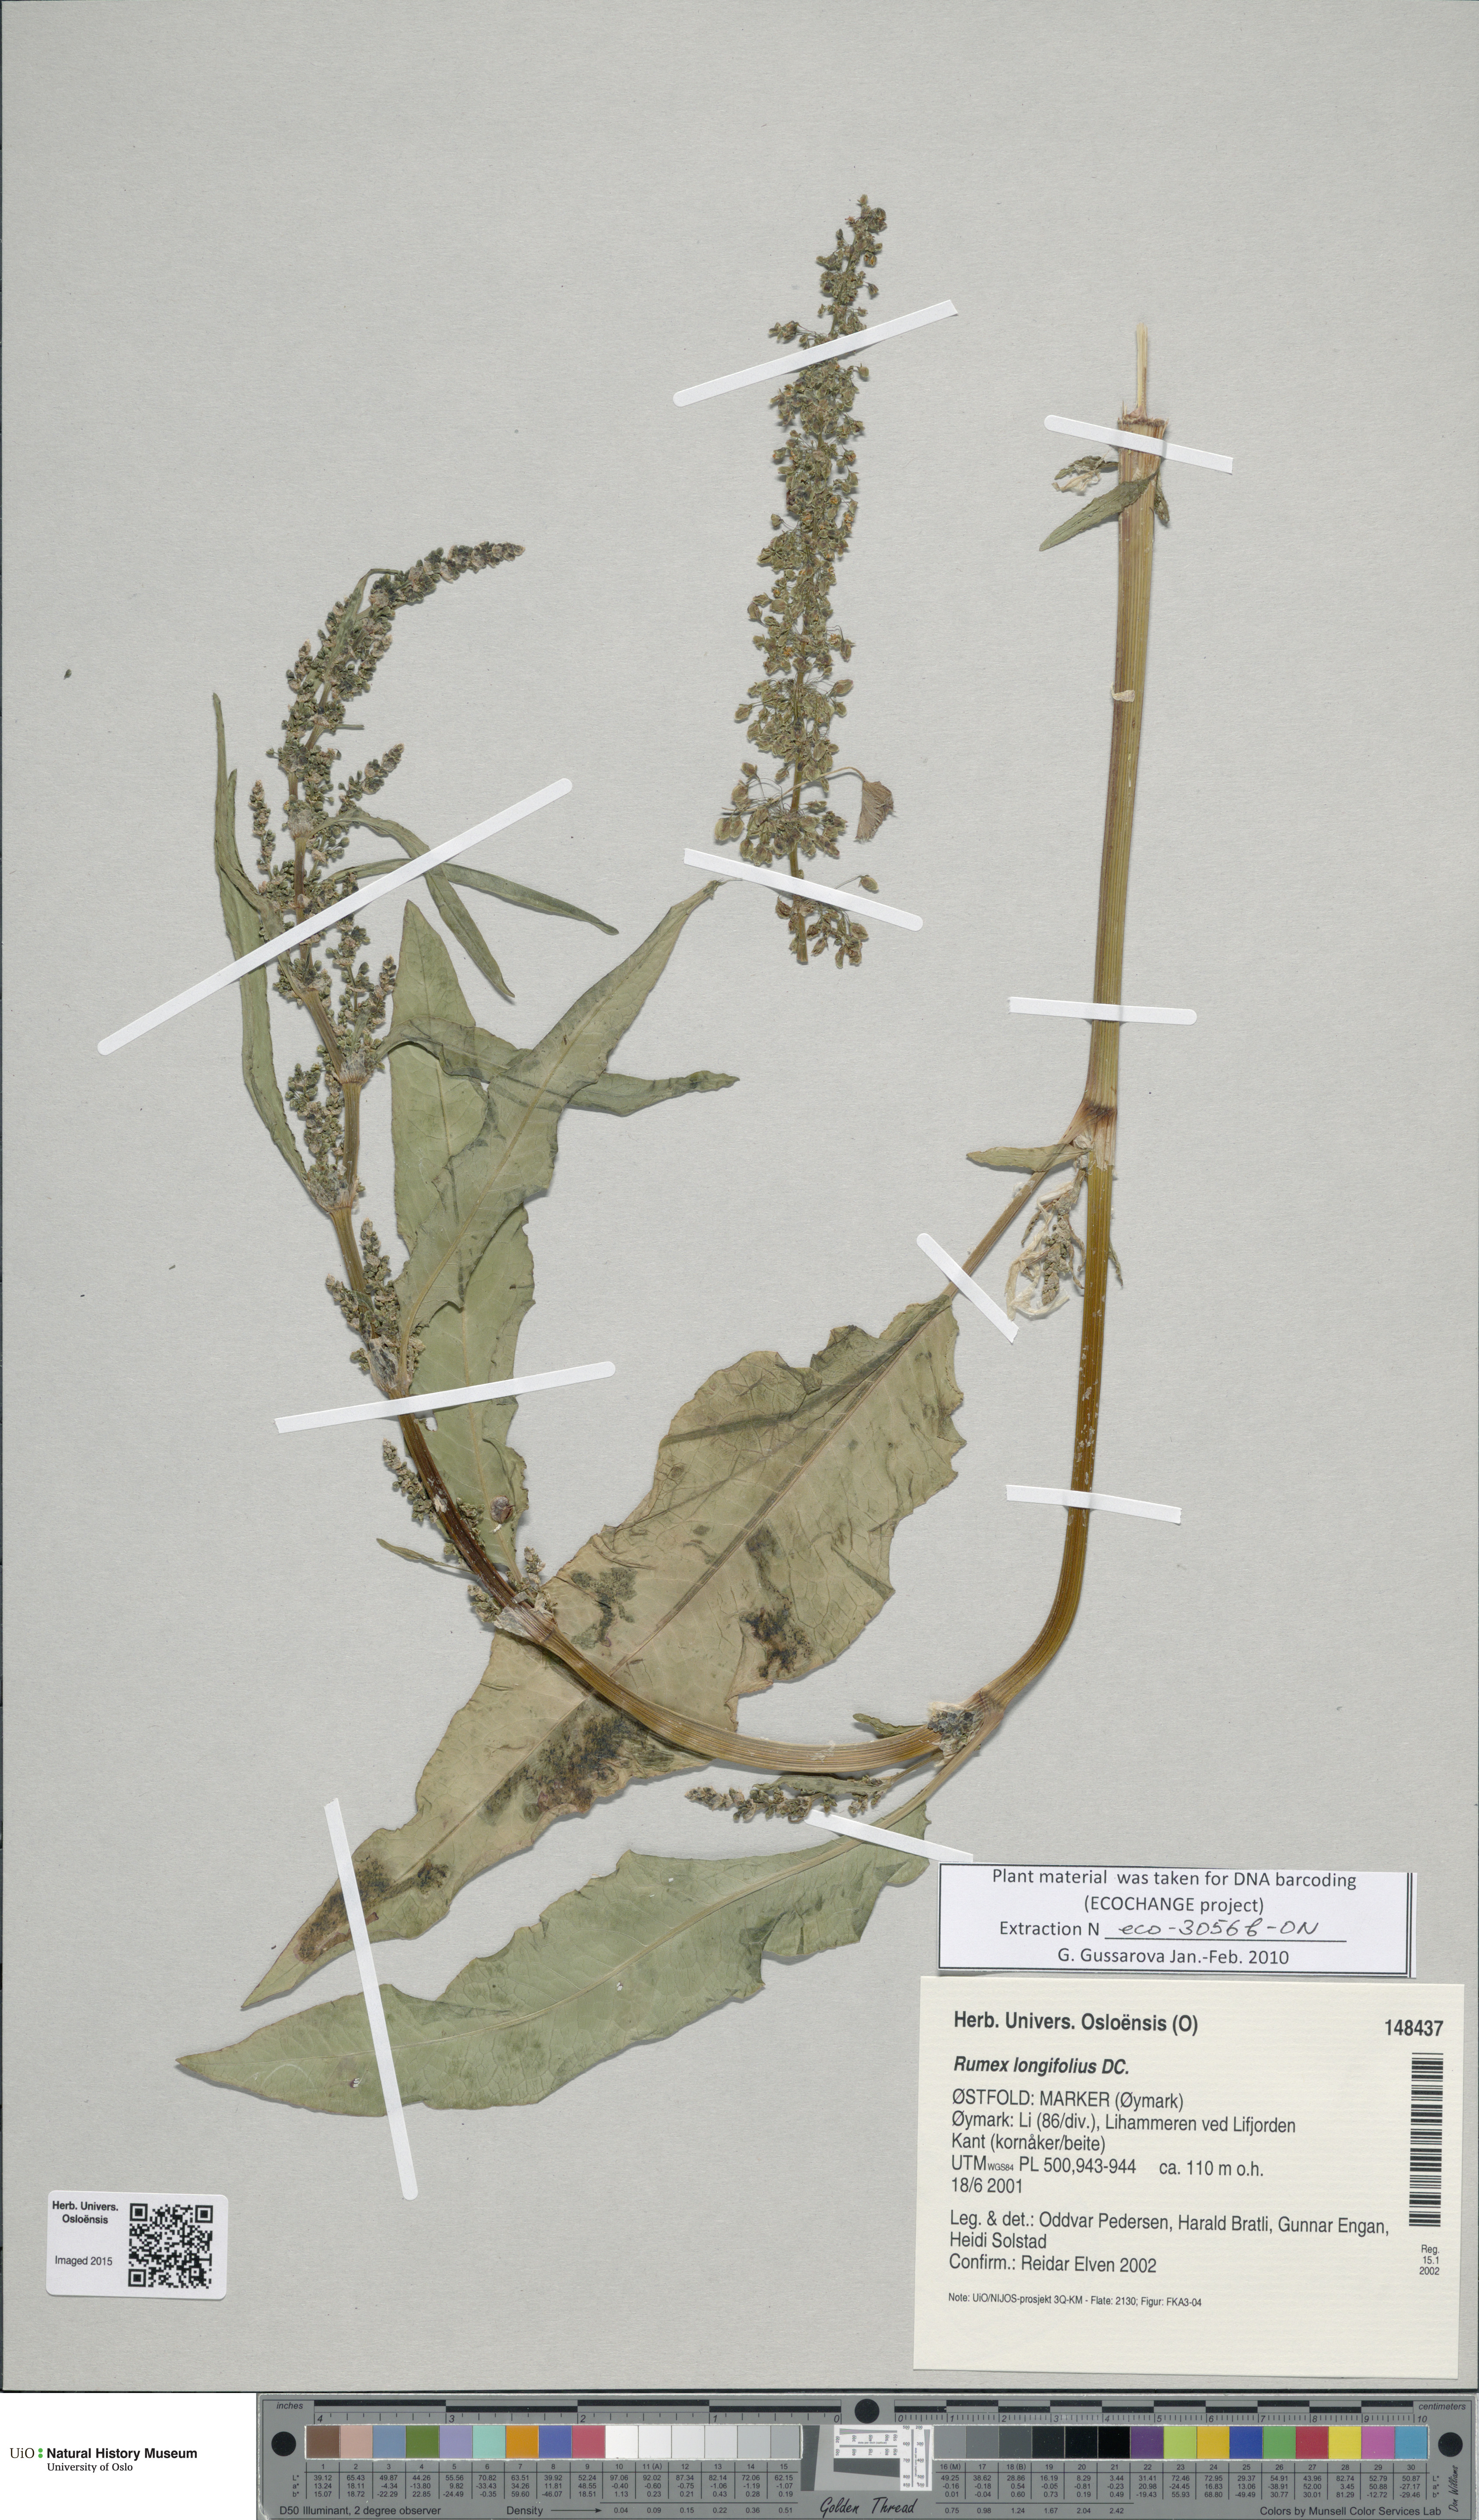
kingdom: Plantae
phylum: Tracheophyta
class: Magnoliopsida
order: Caryophyllales
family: Polygonaceae
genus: Rumex
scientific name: Rumex longifolius
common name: Dooryard dock
